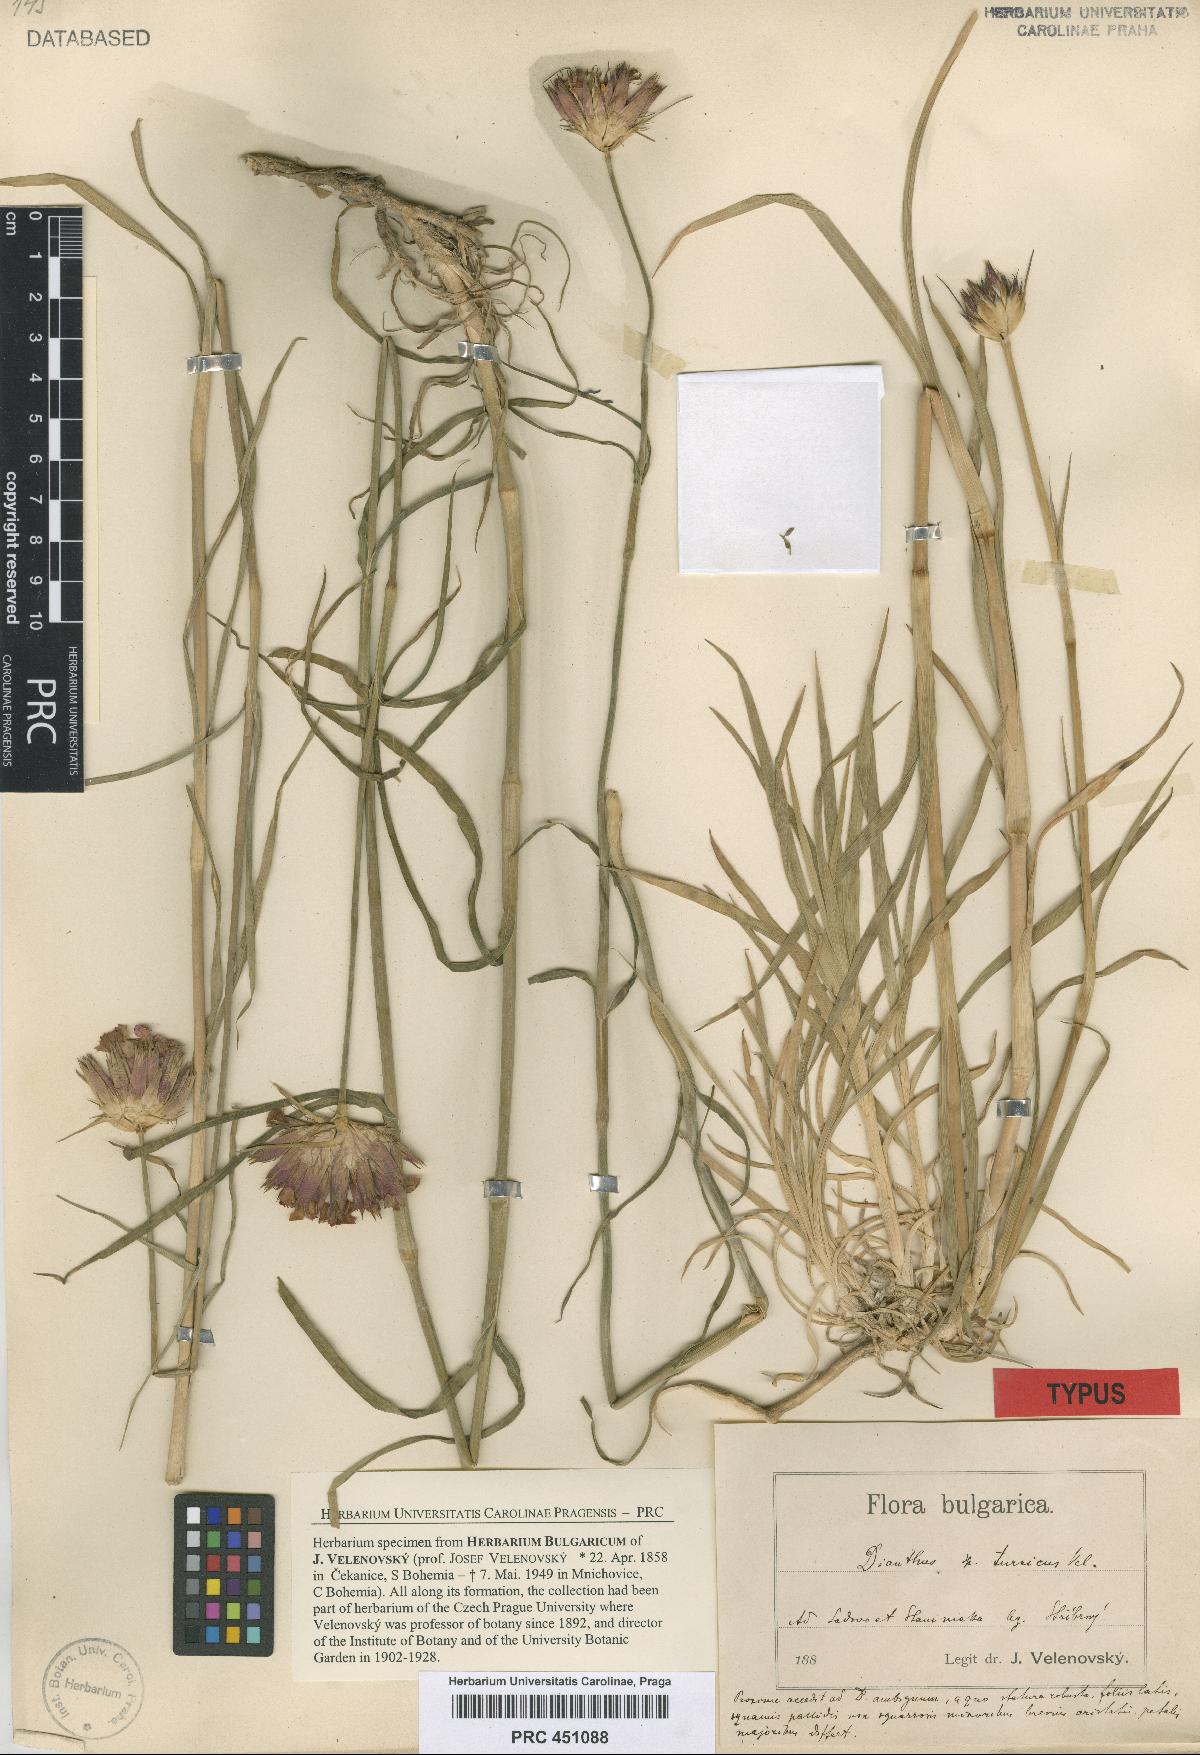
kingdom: Plantae
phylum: Tracheophyta
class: Magnoliopsida
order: Caryophyllales
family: Caryophyllaceae
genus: Dianthus
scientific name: Dianthus cruentus
